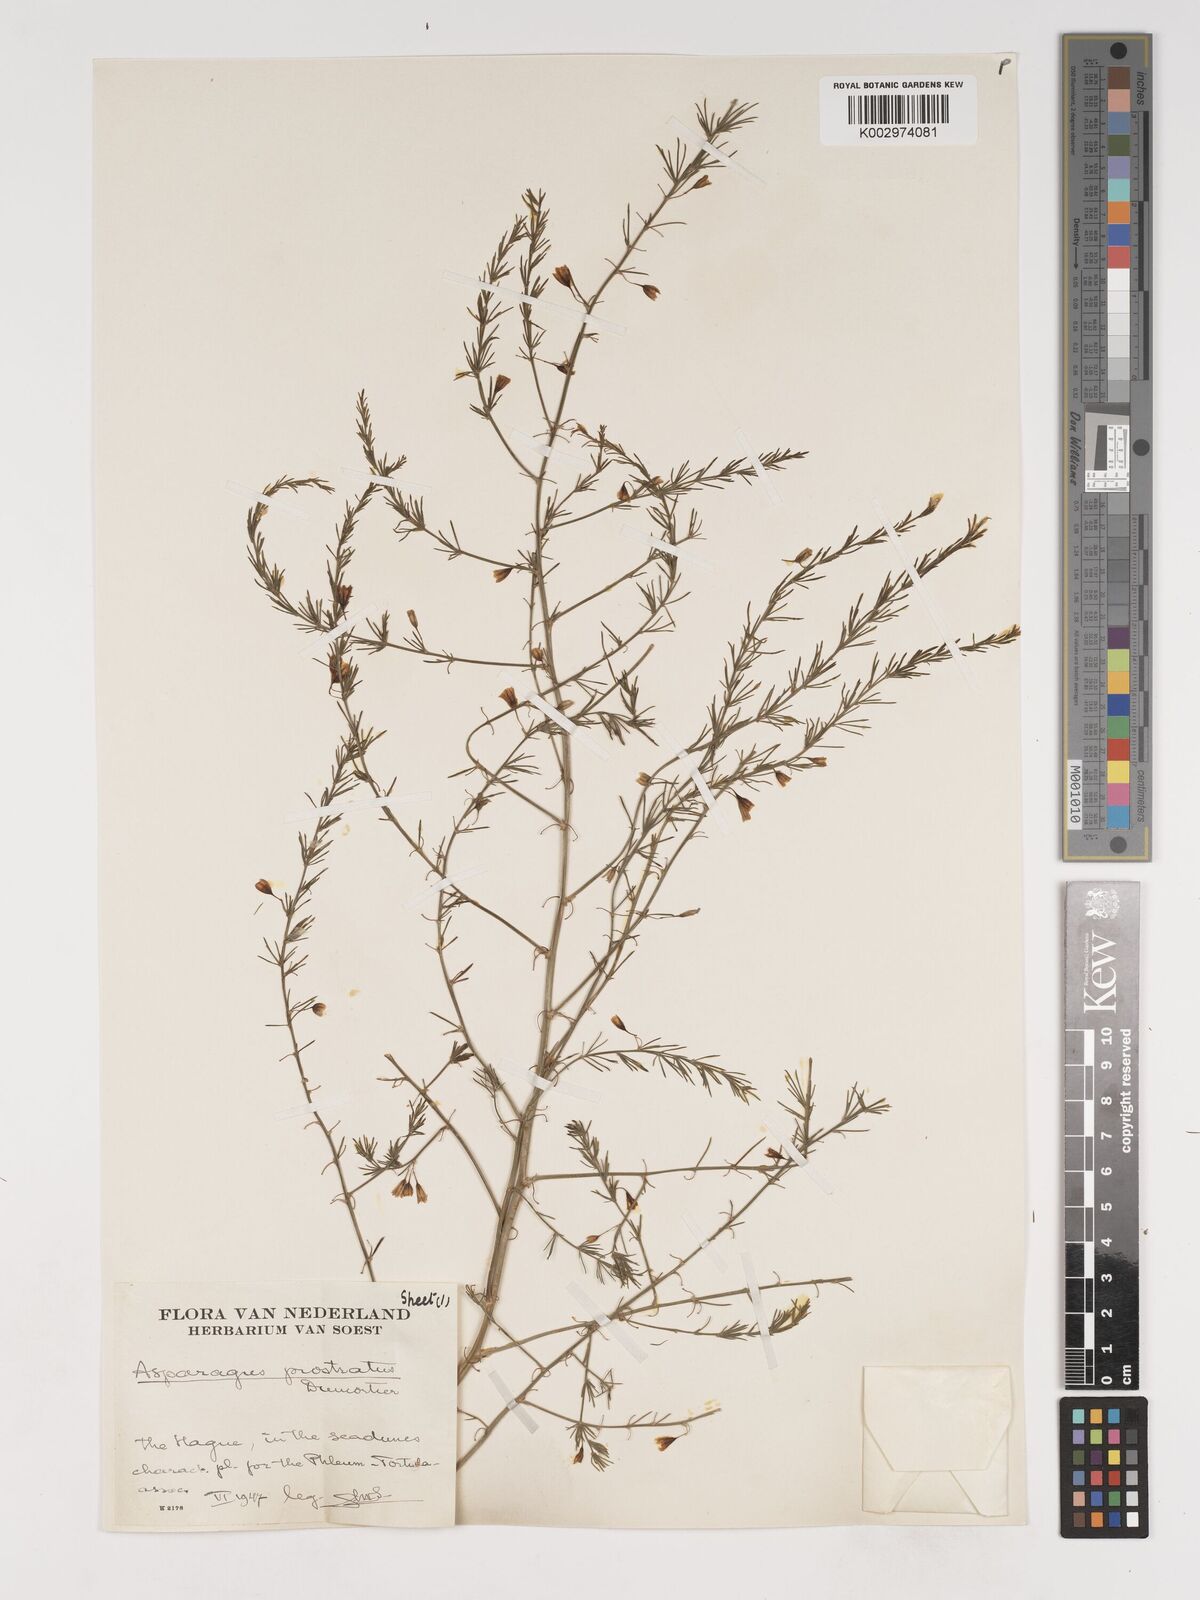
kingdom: Plantae
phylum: Tracheophyta
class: Liliopsida
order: Asparagales
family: Asparagaceae
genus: Asparagus
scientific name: Asparagus prostratus
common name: Wild asparagus
